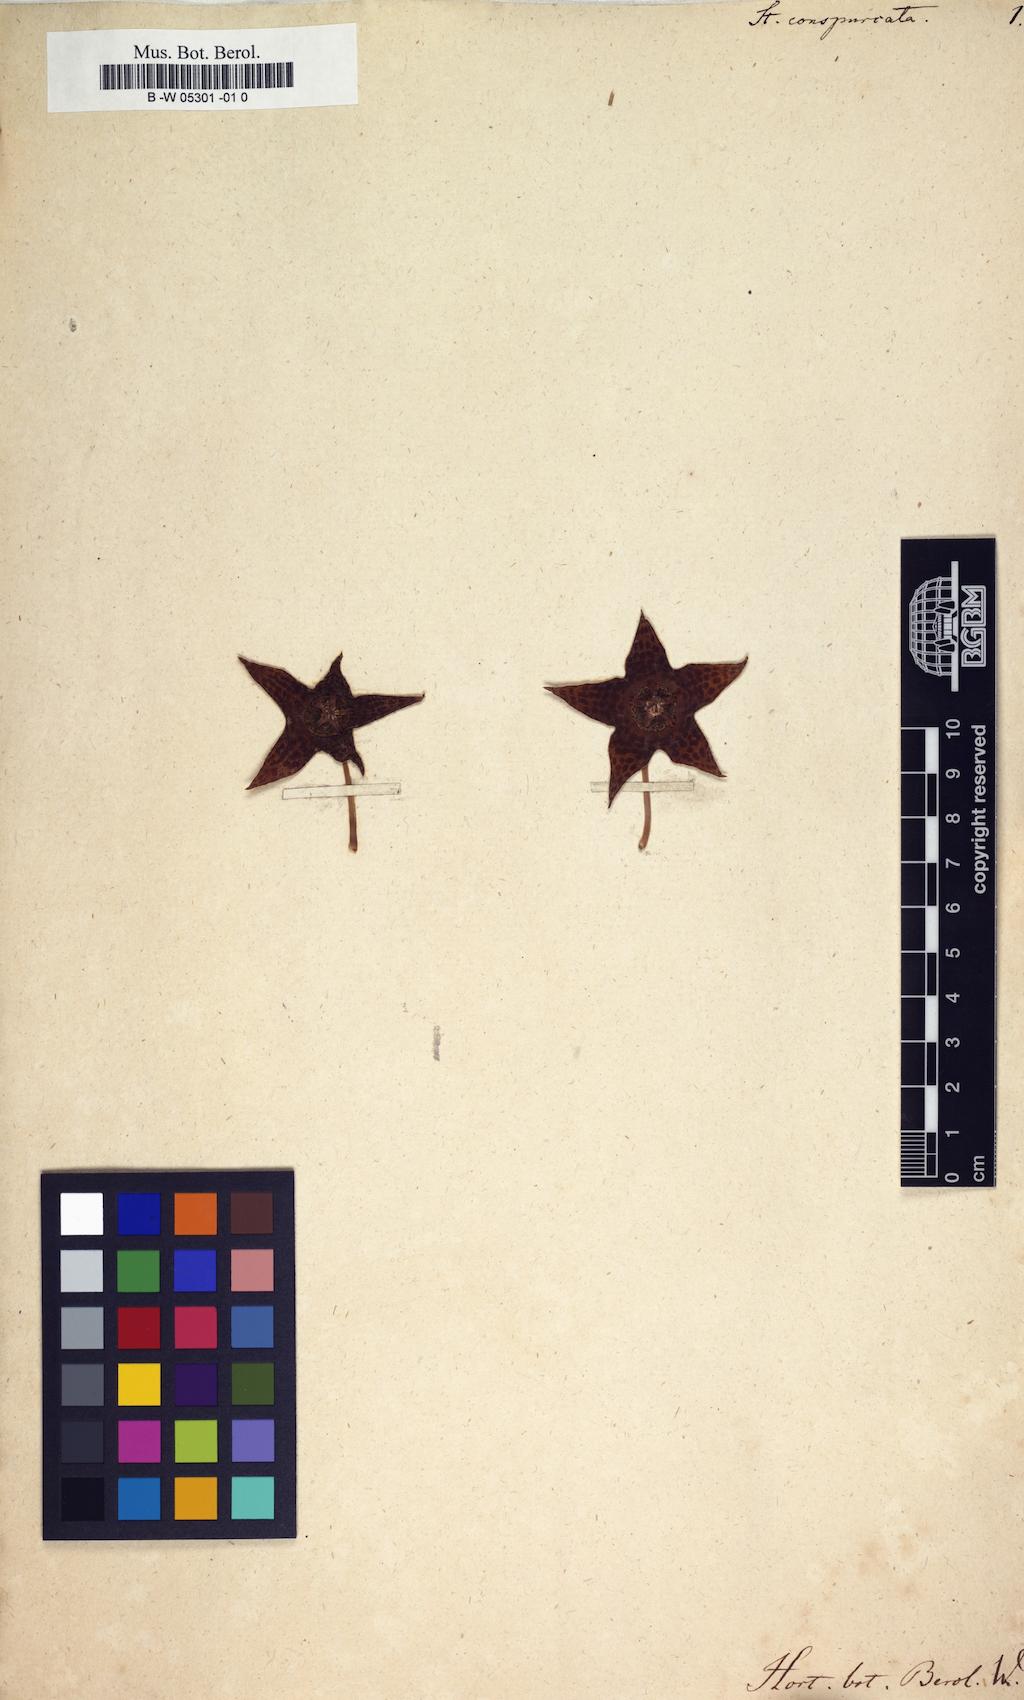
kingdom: Plantae
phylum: Tracheophyta
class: Magnoliopsida
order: Gentianales
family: Apocynaceae
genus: Ceropegia
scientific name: Ceropegia mixta
